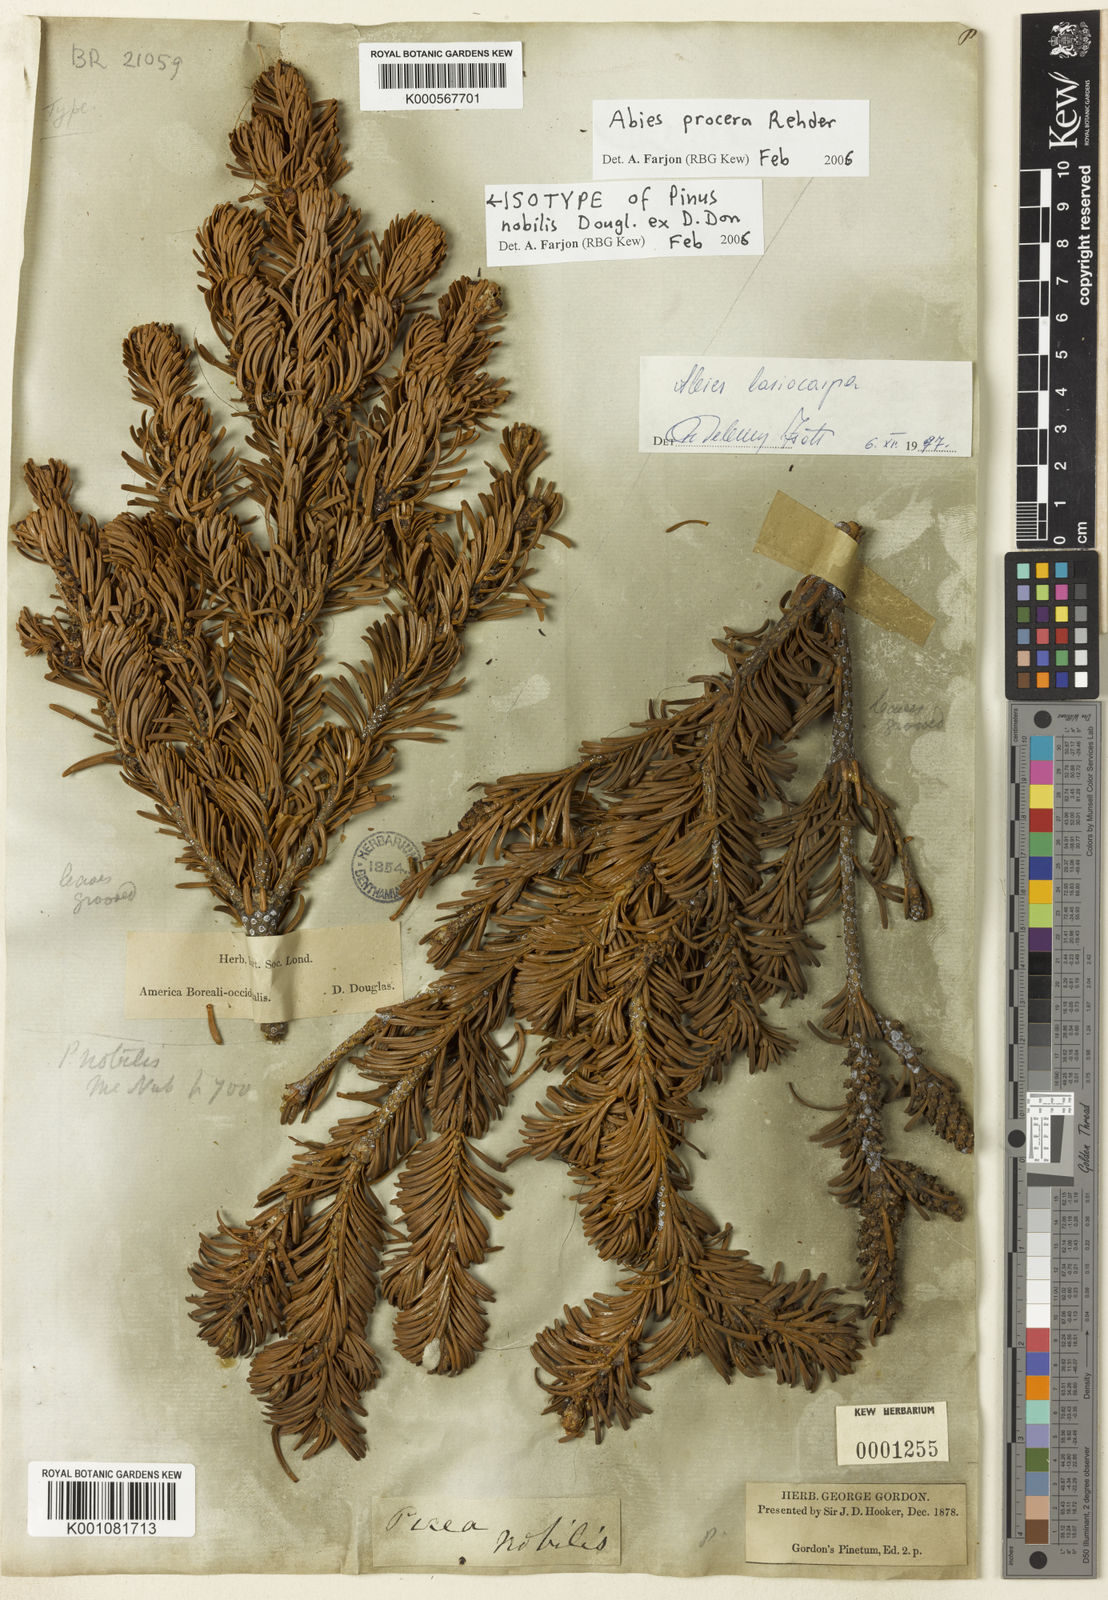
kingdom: Plantae
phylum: Tracheophyta
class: Pinopsida
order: Pinales
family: Pinaceae
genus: Abies
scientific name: Abies procera
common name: Noble fir
